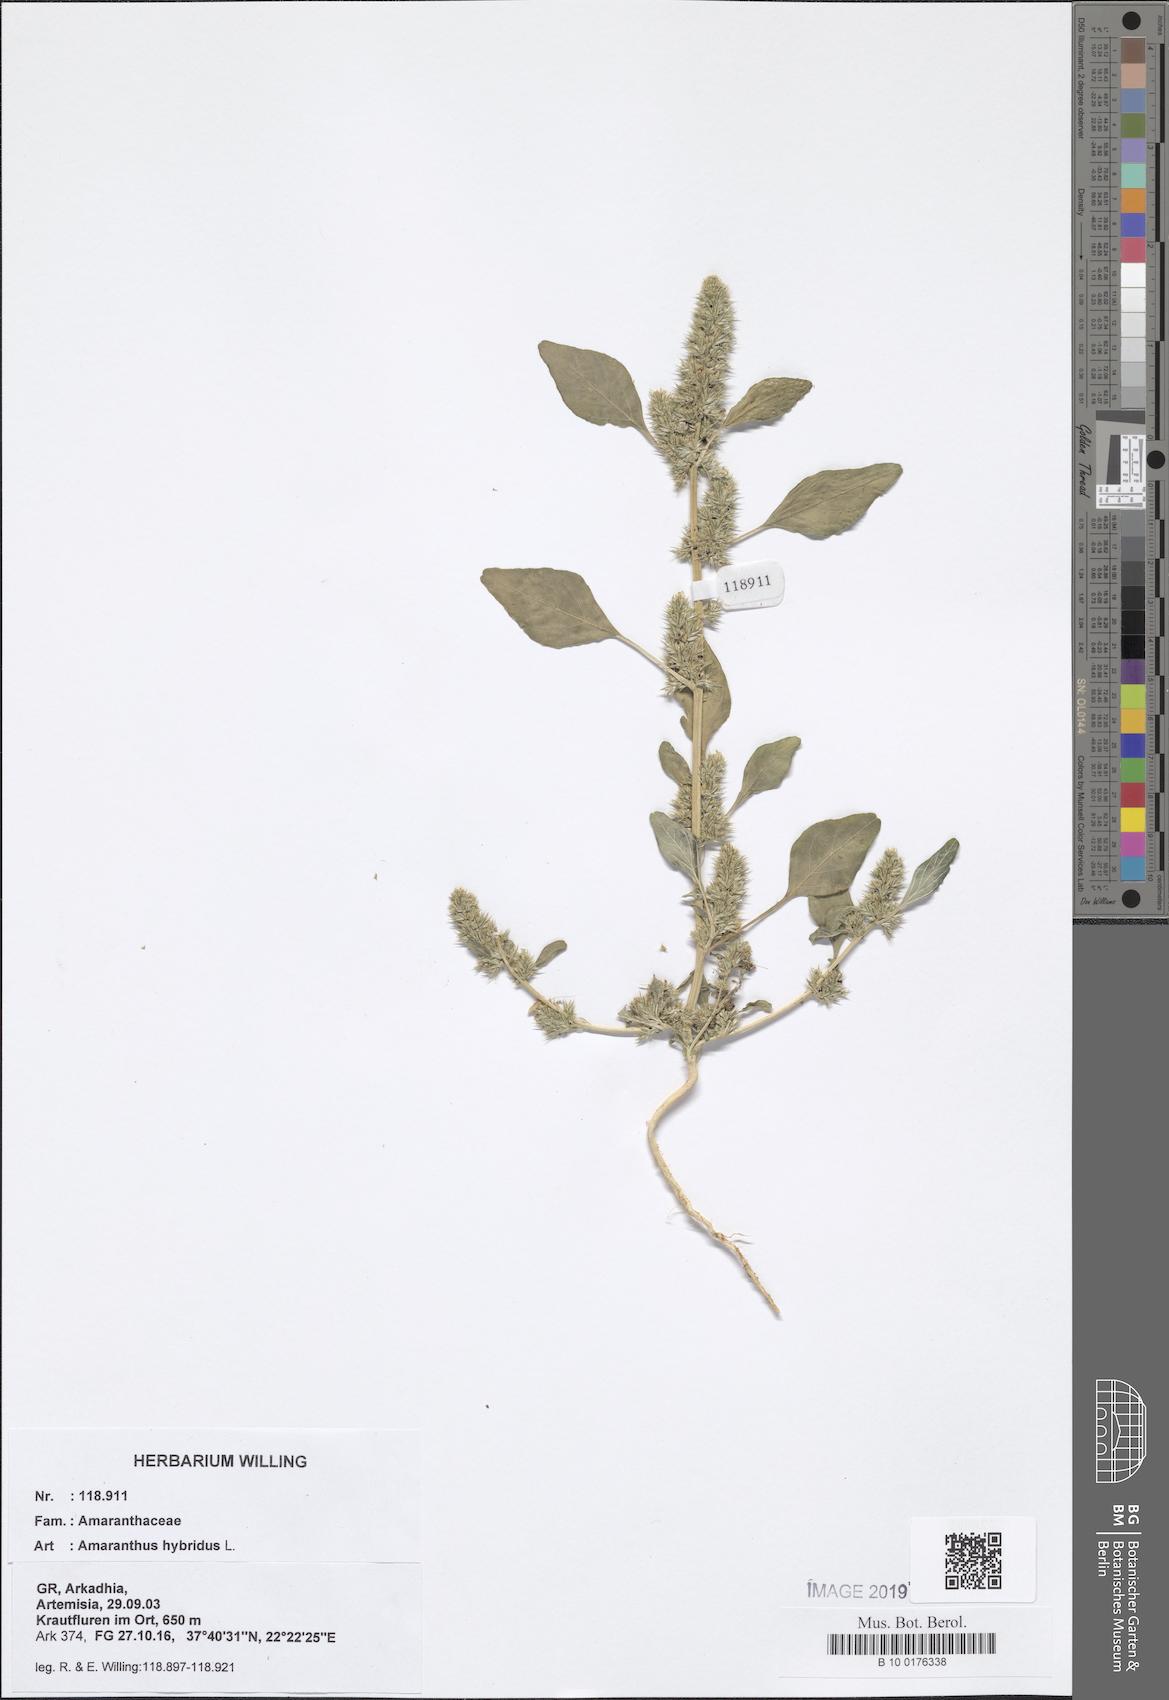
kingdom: Plantae
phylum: Tracheophyta
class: Magnoliopsida
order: Caryophyllales
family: Amaranthaceae
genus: Amaranthus
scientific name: Amaranthus hybridus
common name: Green amaranth
